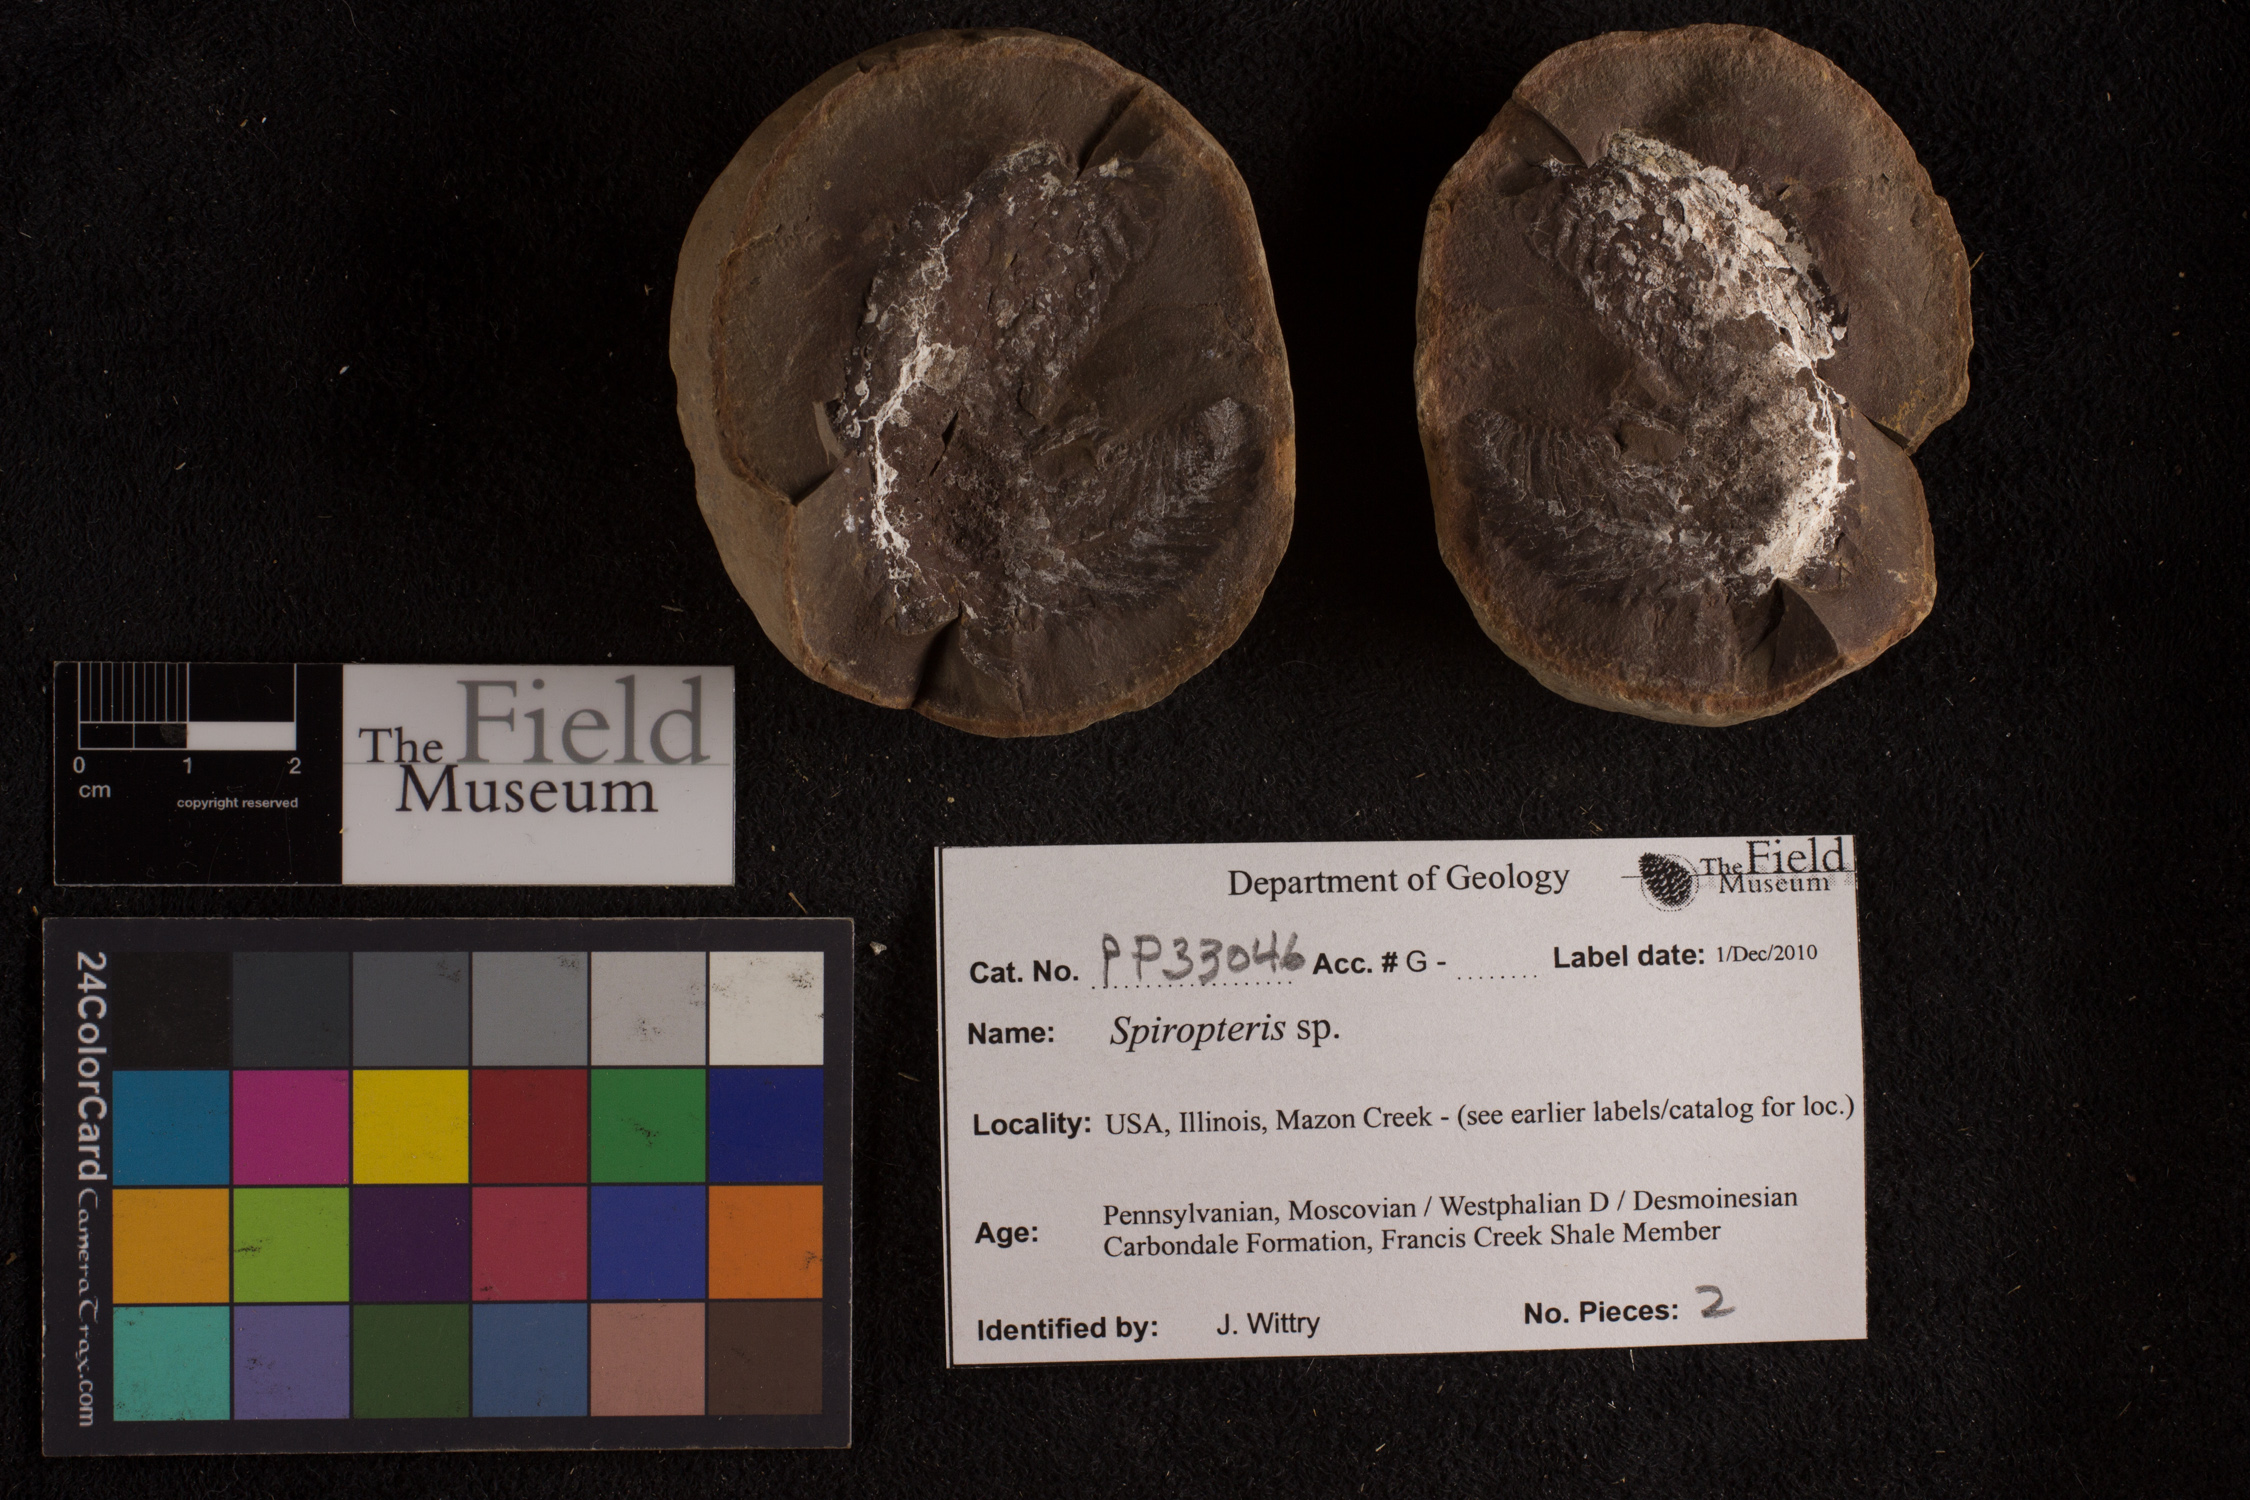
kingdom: Plantae
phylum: Tracheophyta
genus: Spiropteris
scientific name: Spiropteris
